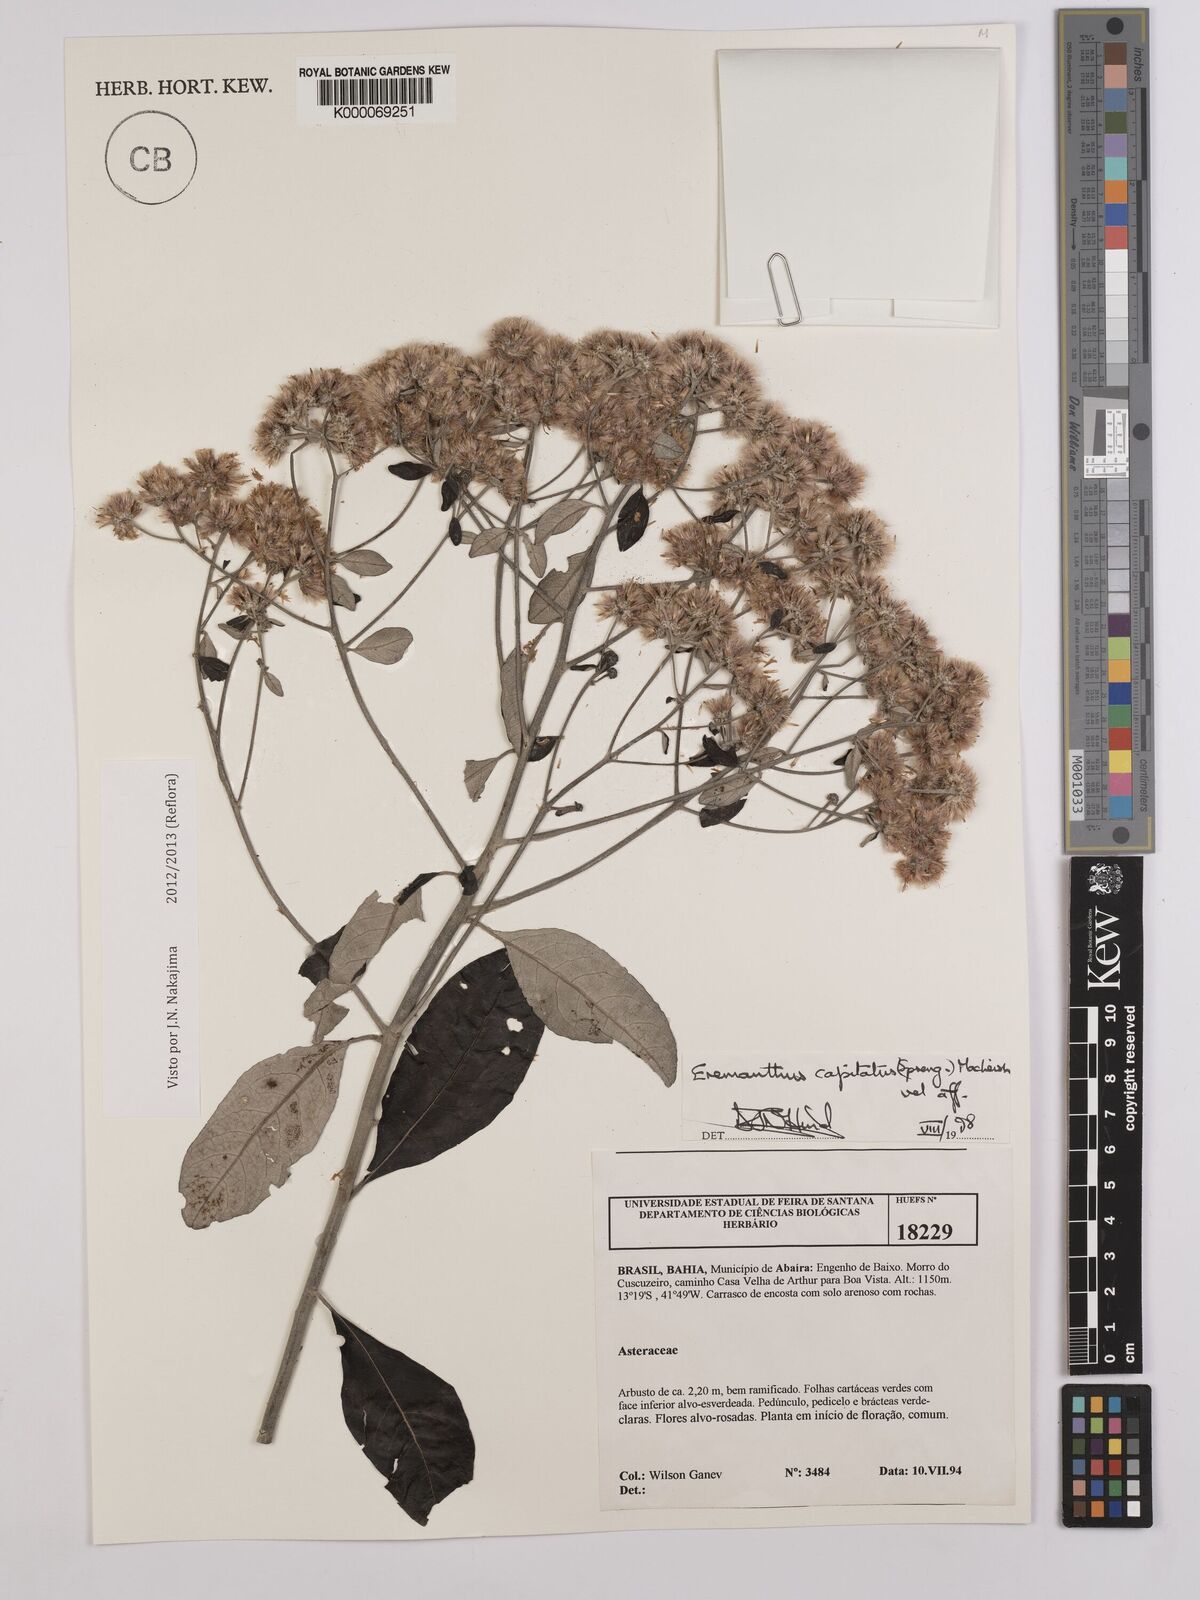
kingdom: Plantae
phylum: Tracheophyta
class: Magnoliopsida
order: Asterales
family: Asteraceae
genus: Eremanthus
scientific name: Eremanthus capitatus
